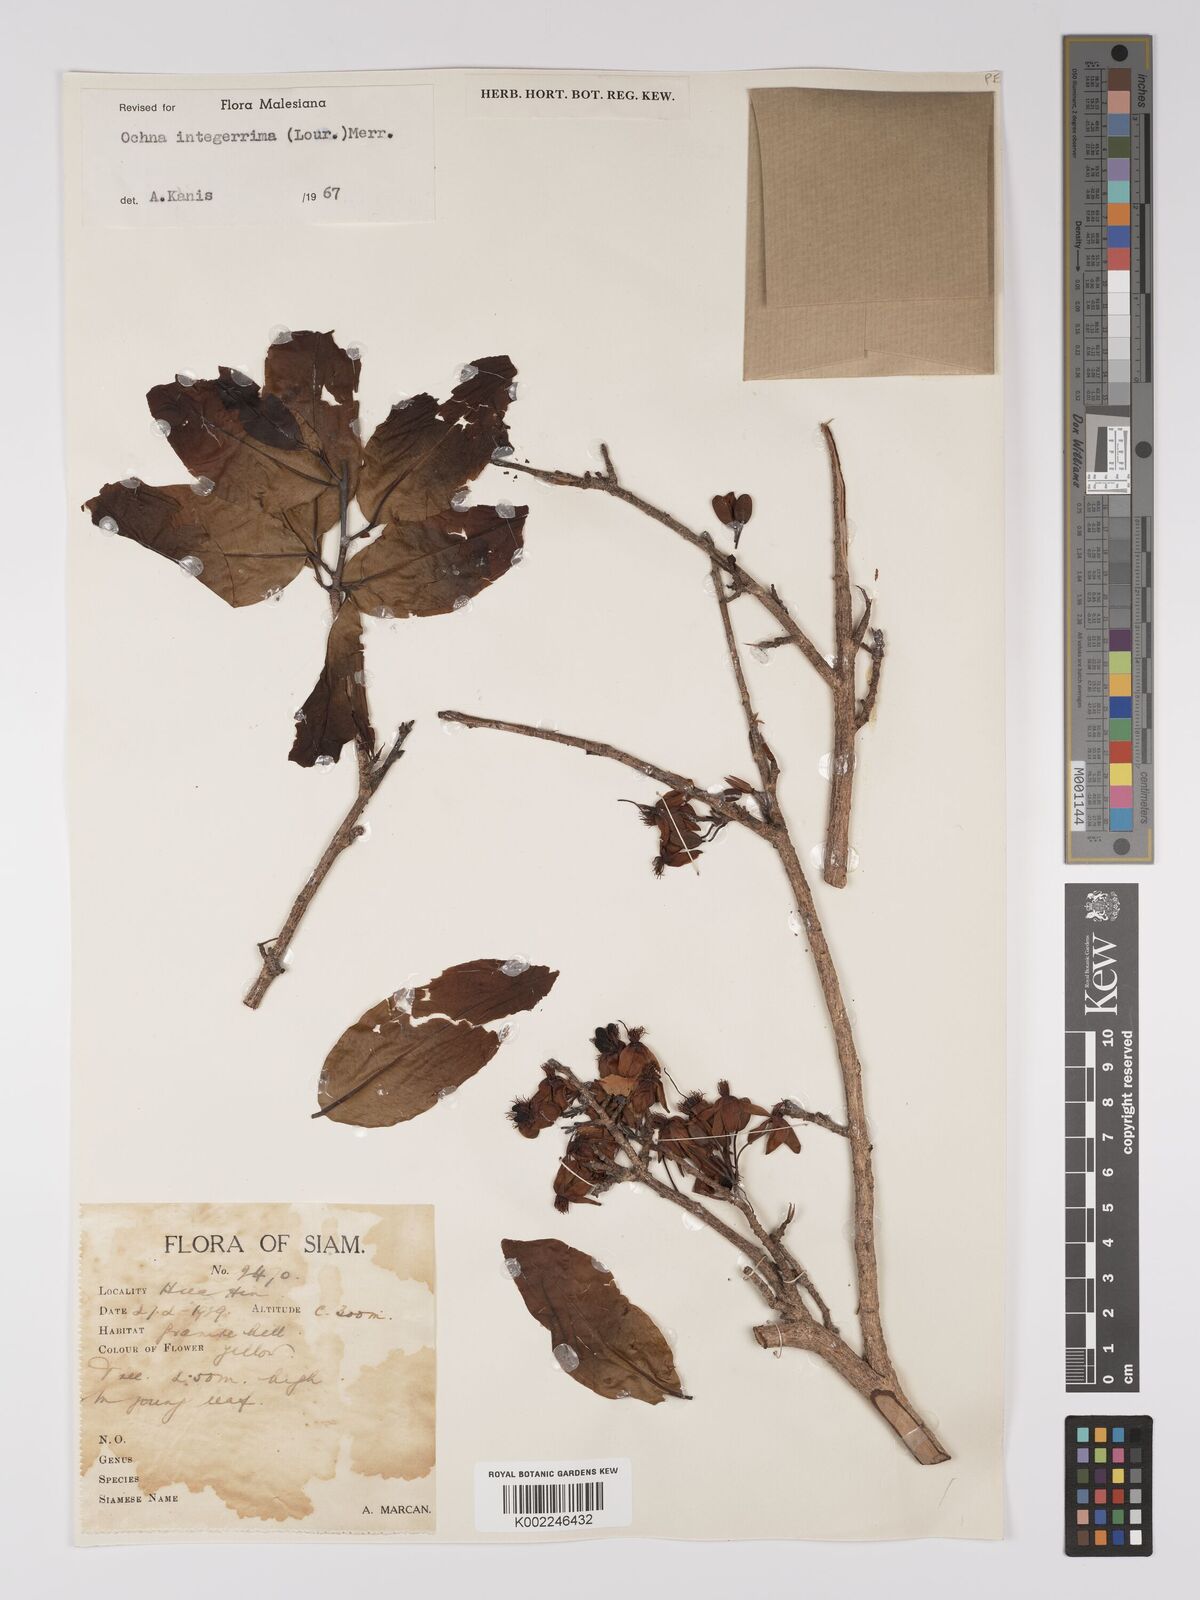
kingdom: Plantae
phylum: Tracheophyta
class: Magnoliopsida
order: Malpighiales
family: Ochnaceae
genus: Ochna
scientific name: Ochna integerrima
